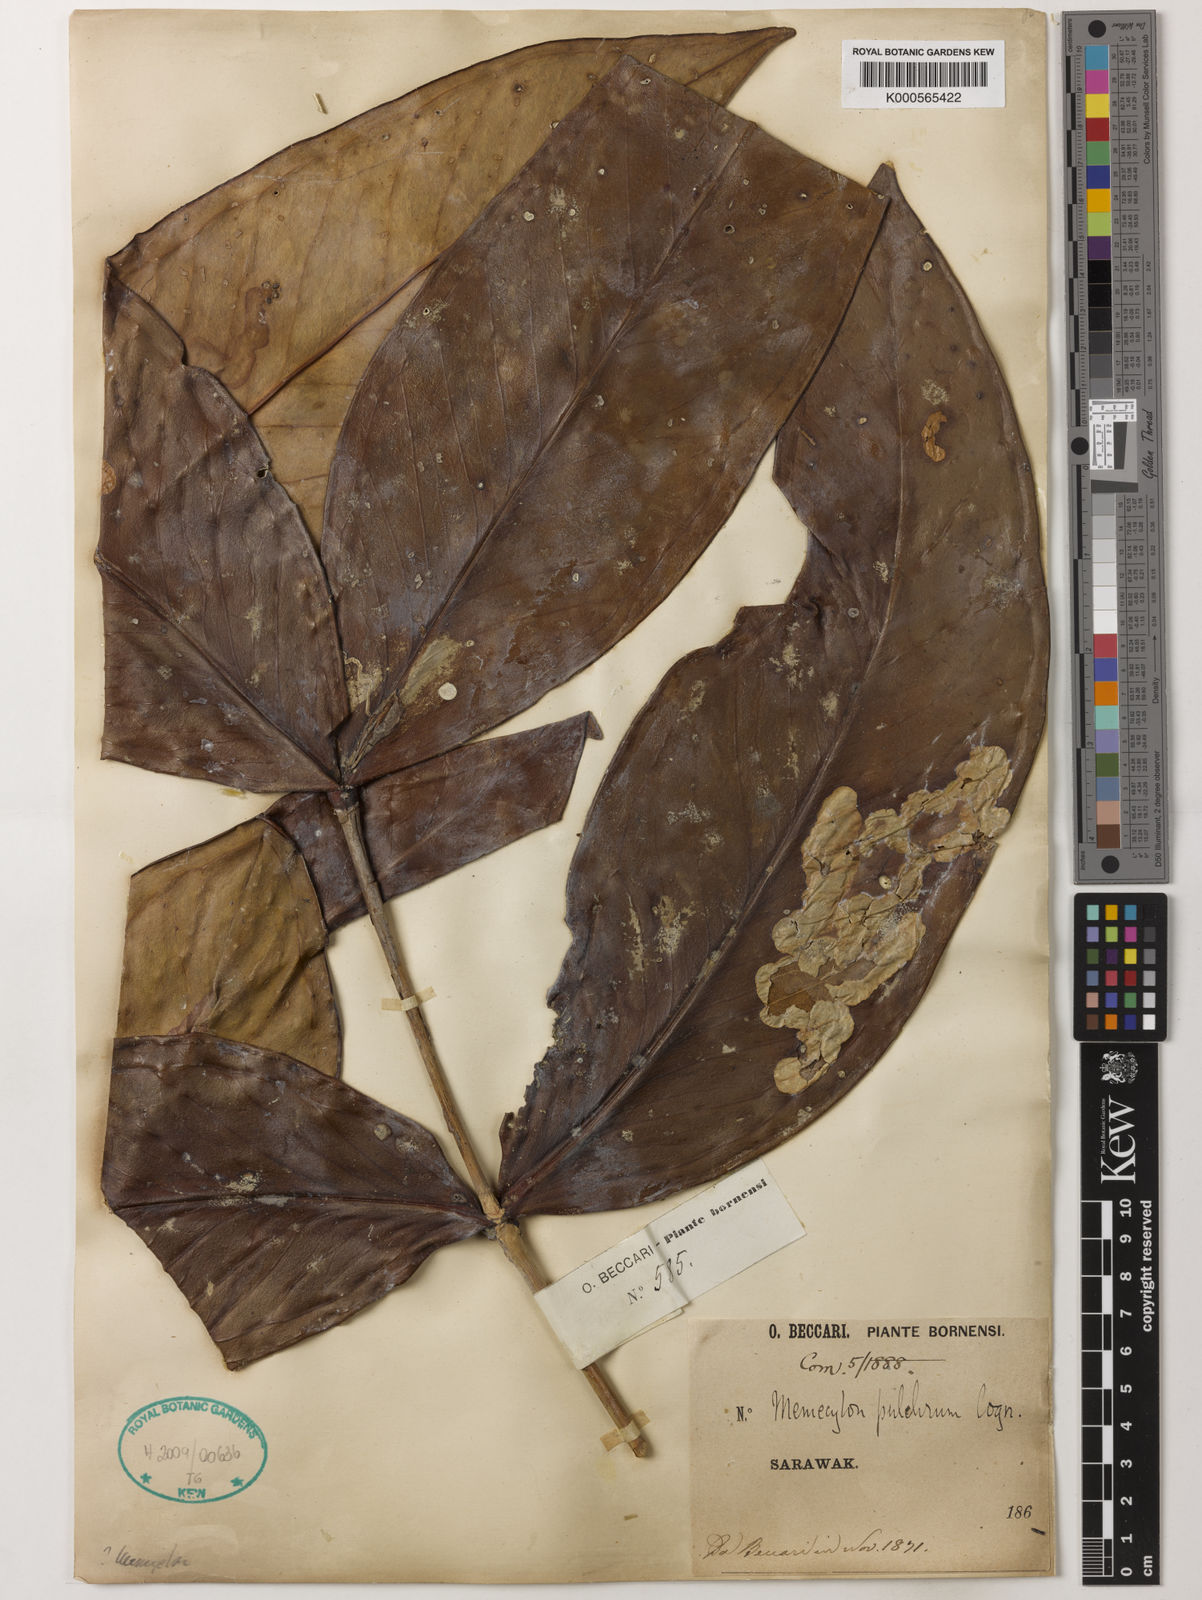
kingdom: Plantae
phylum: Tracheophyta
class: Magnoliopsida
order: Myrtales
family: Melastomataceae
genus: Memecylon
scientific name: Memecylon megacarpum
